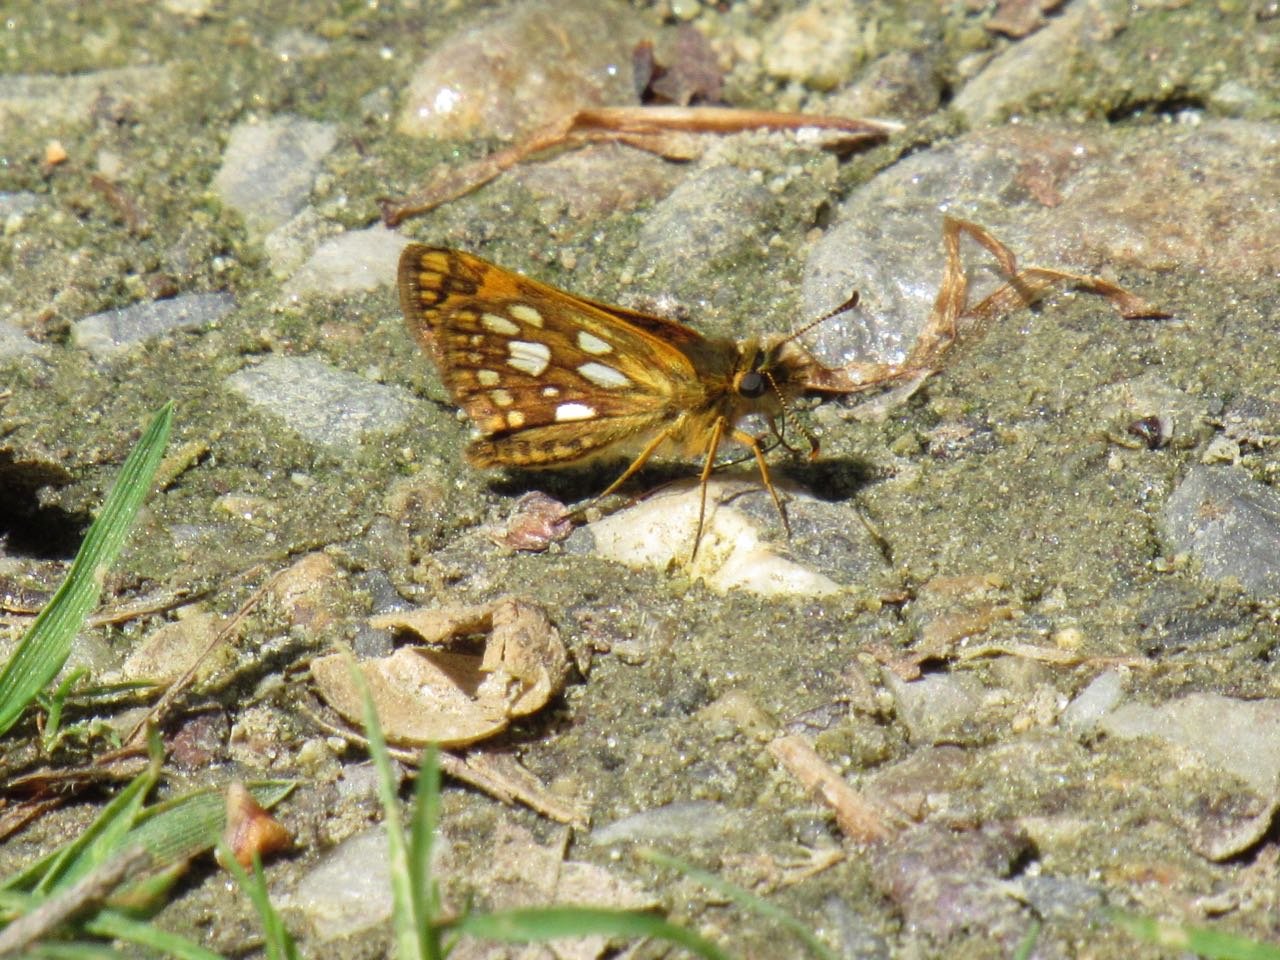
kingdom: Animalia
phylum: Arthropoda
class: Insecta
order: Lepidoptera
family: Hesperiidae
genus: Carterocephalus
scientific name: Carterocephalus palaemon
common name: Chequered Skipper
